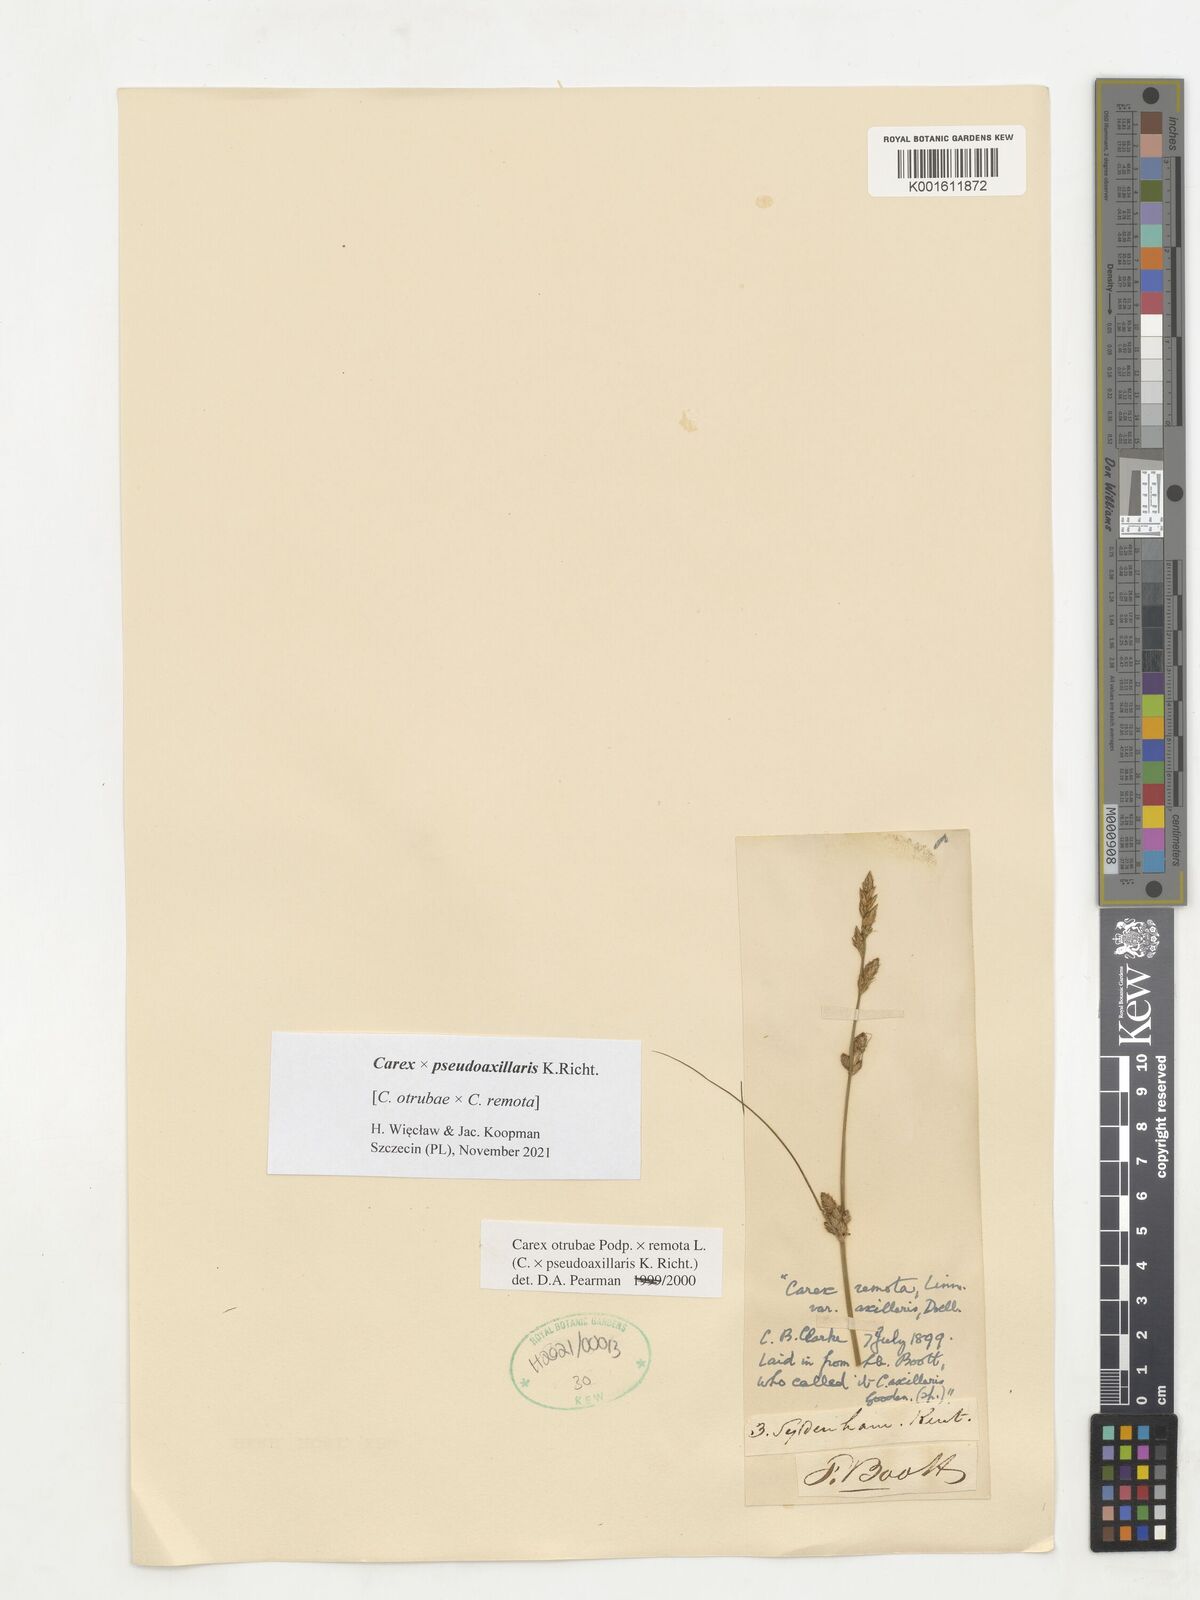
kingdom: Plantae
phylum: Tracheophyta
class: Liliopsida
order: Poales
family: Cyperaceae
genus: Carex
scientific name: Carex pseudoaxillaris
